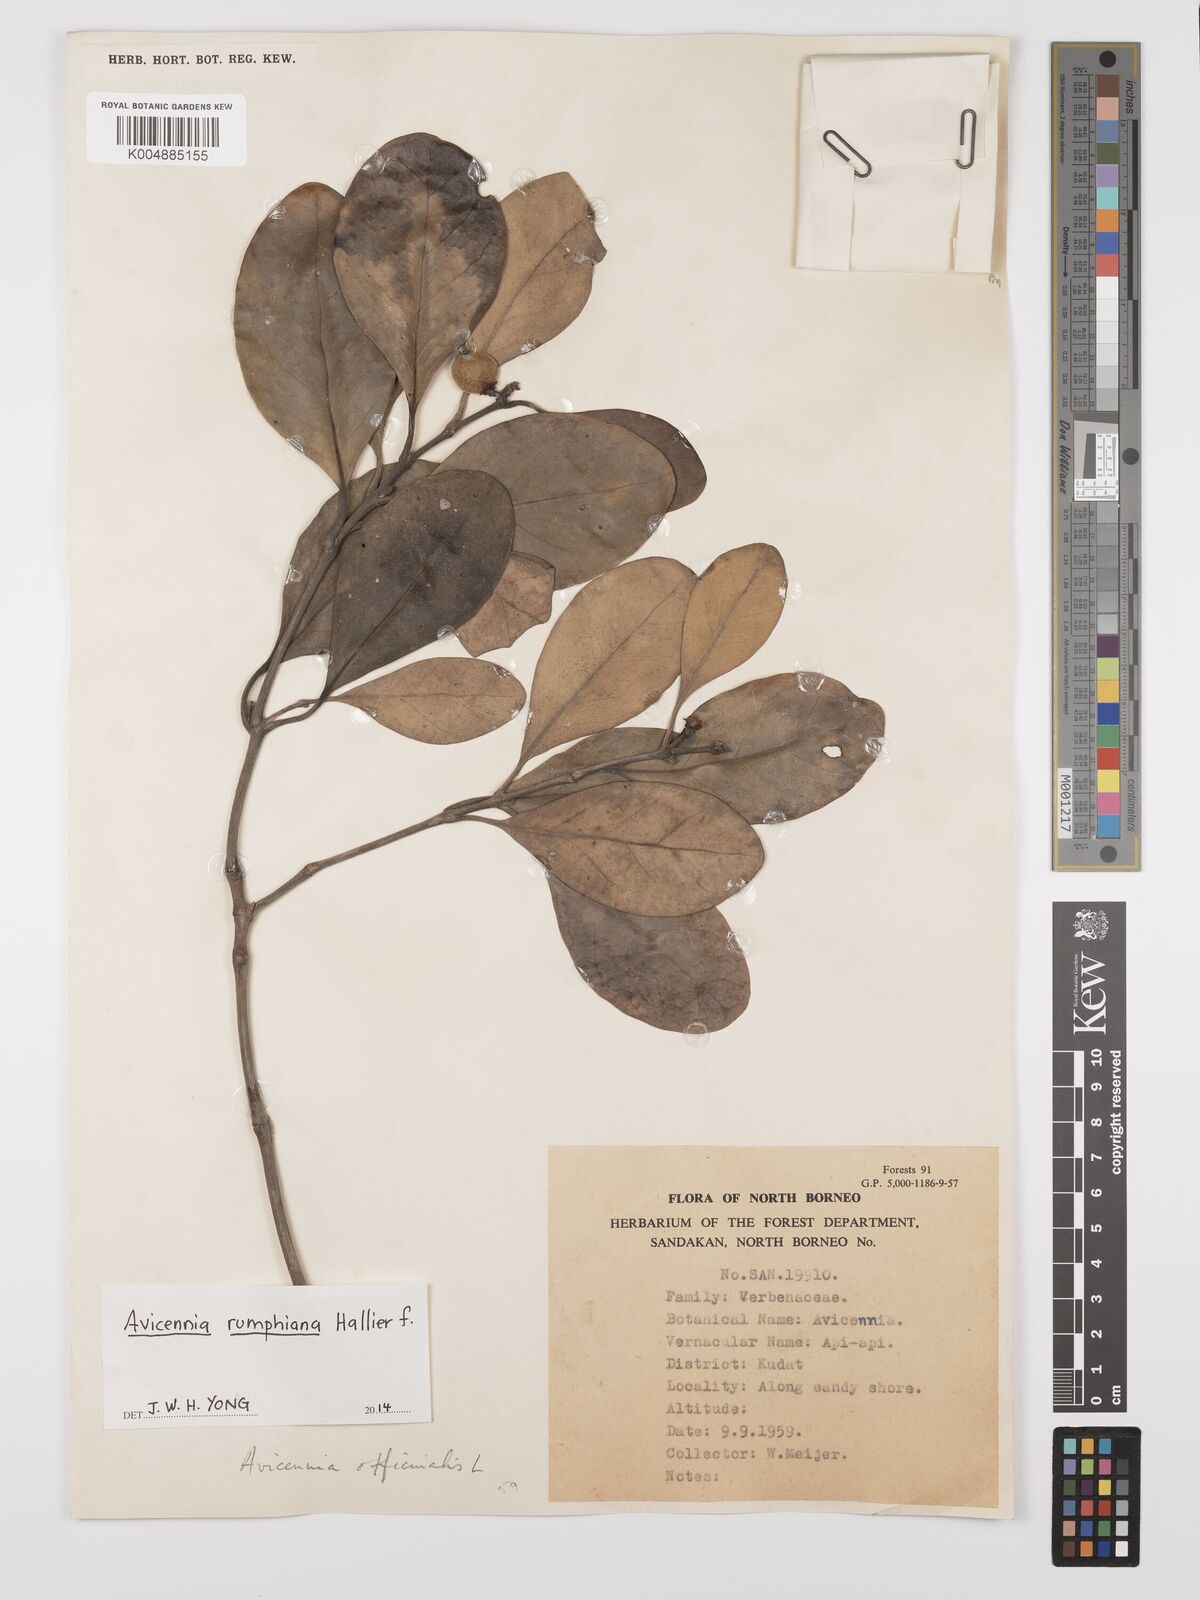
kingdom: Plantae
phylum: Tracheophyta
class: Magnoliopsida
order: Lamiales
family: Acanthaceae
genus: Avicennia
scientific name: Avicennia marina
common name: Gray mangrove
